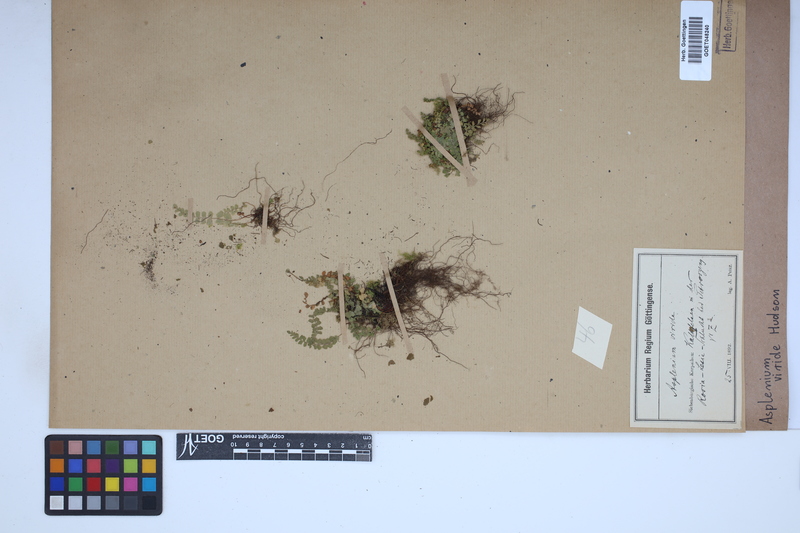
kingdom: Plantae
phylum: Tracheophyta
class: Polypodiopsida
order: Polypodiales
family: Aspleniaceae
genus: Asplenium
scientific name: Asplenium viride
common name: Green spleenwort
